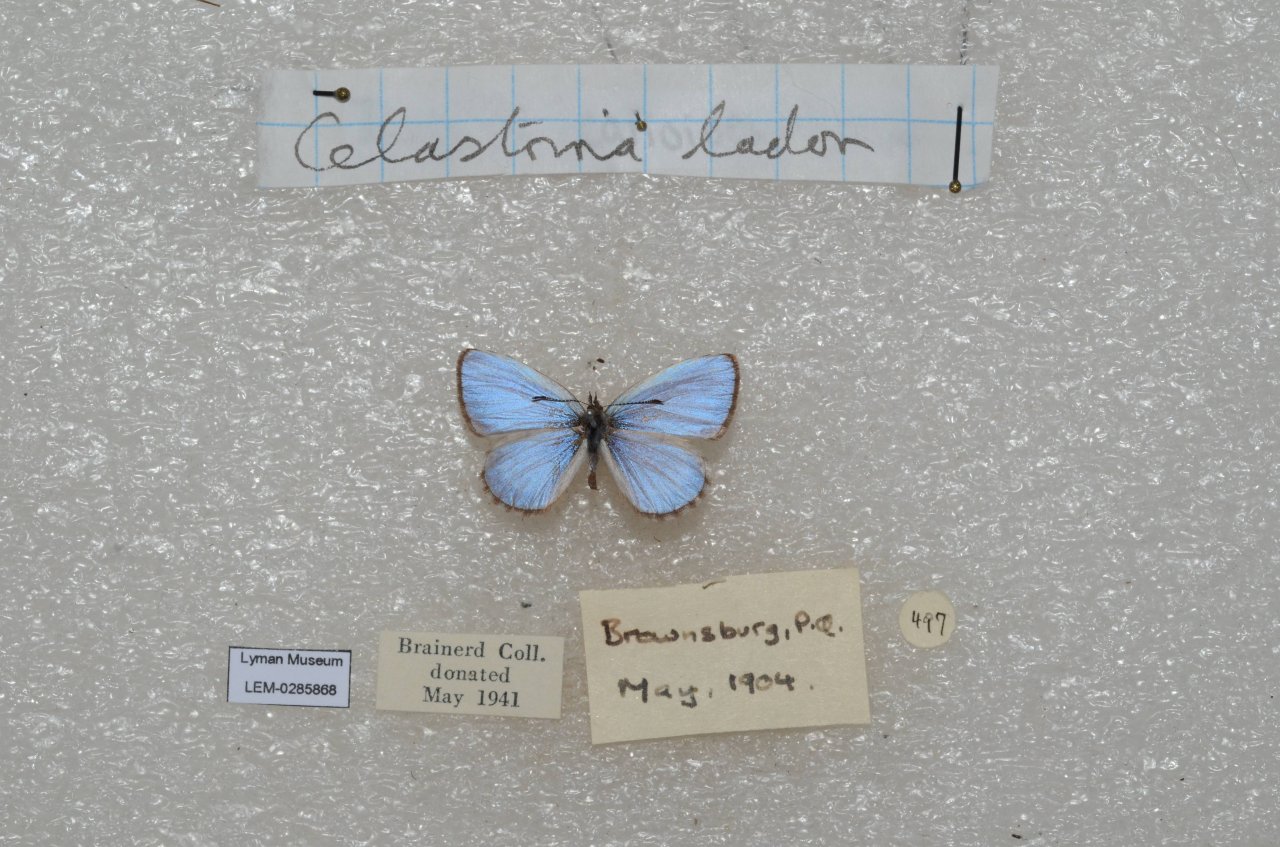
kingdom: Animalia
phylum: Arthropoda
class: Insecta
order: Lepidoptera
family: Lycaenidae
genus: Celastrina
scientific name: Celastrina lucia
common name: Northern Spring Azure
